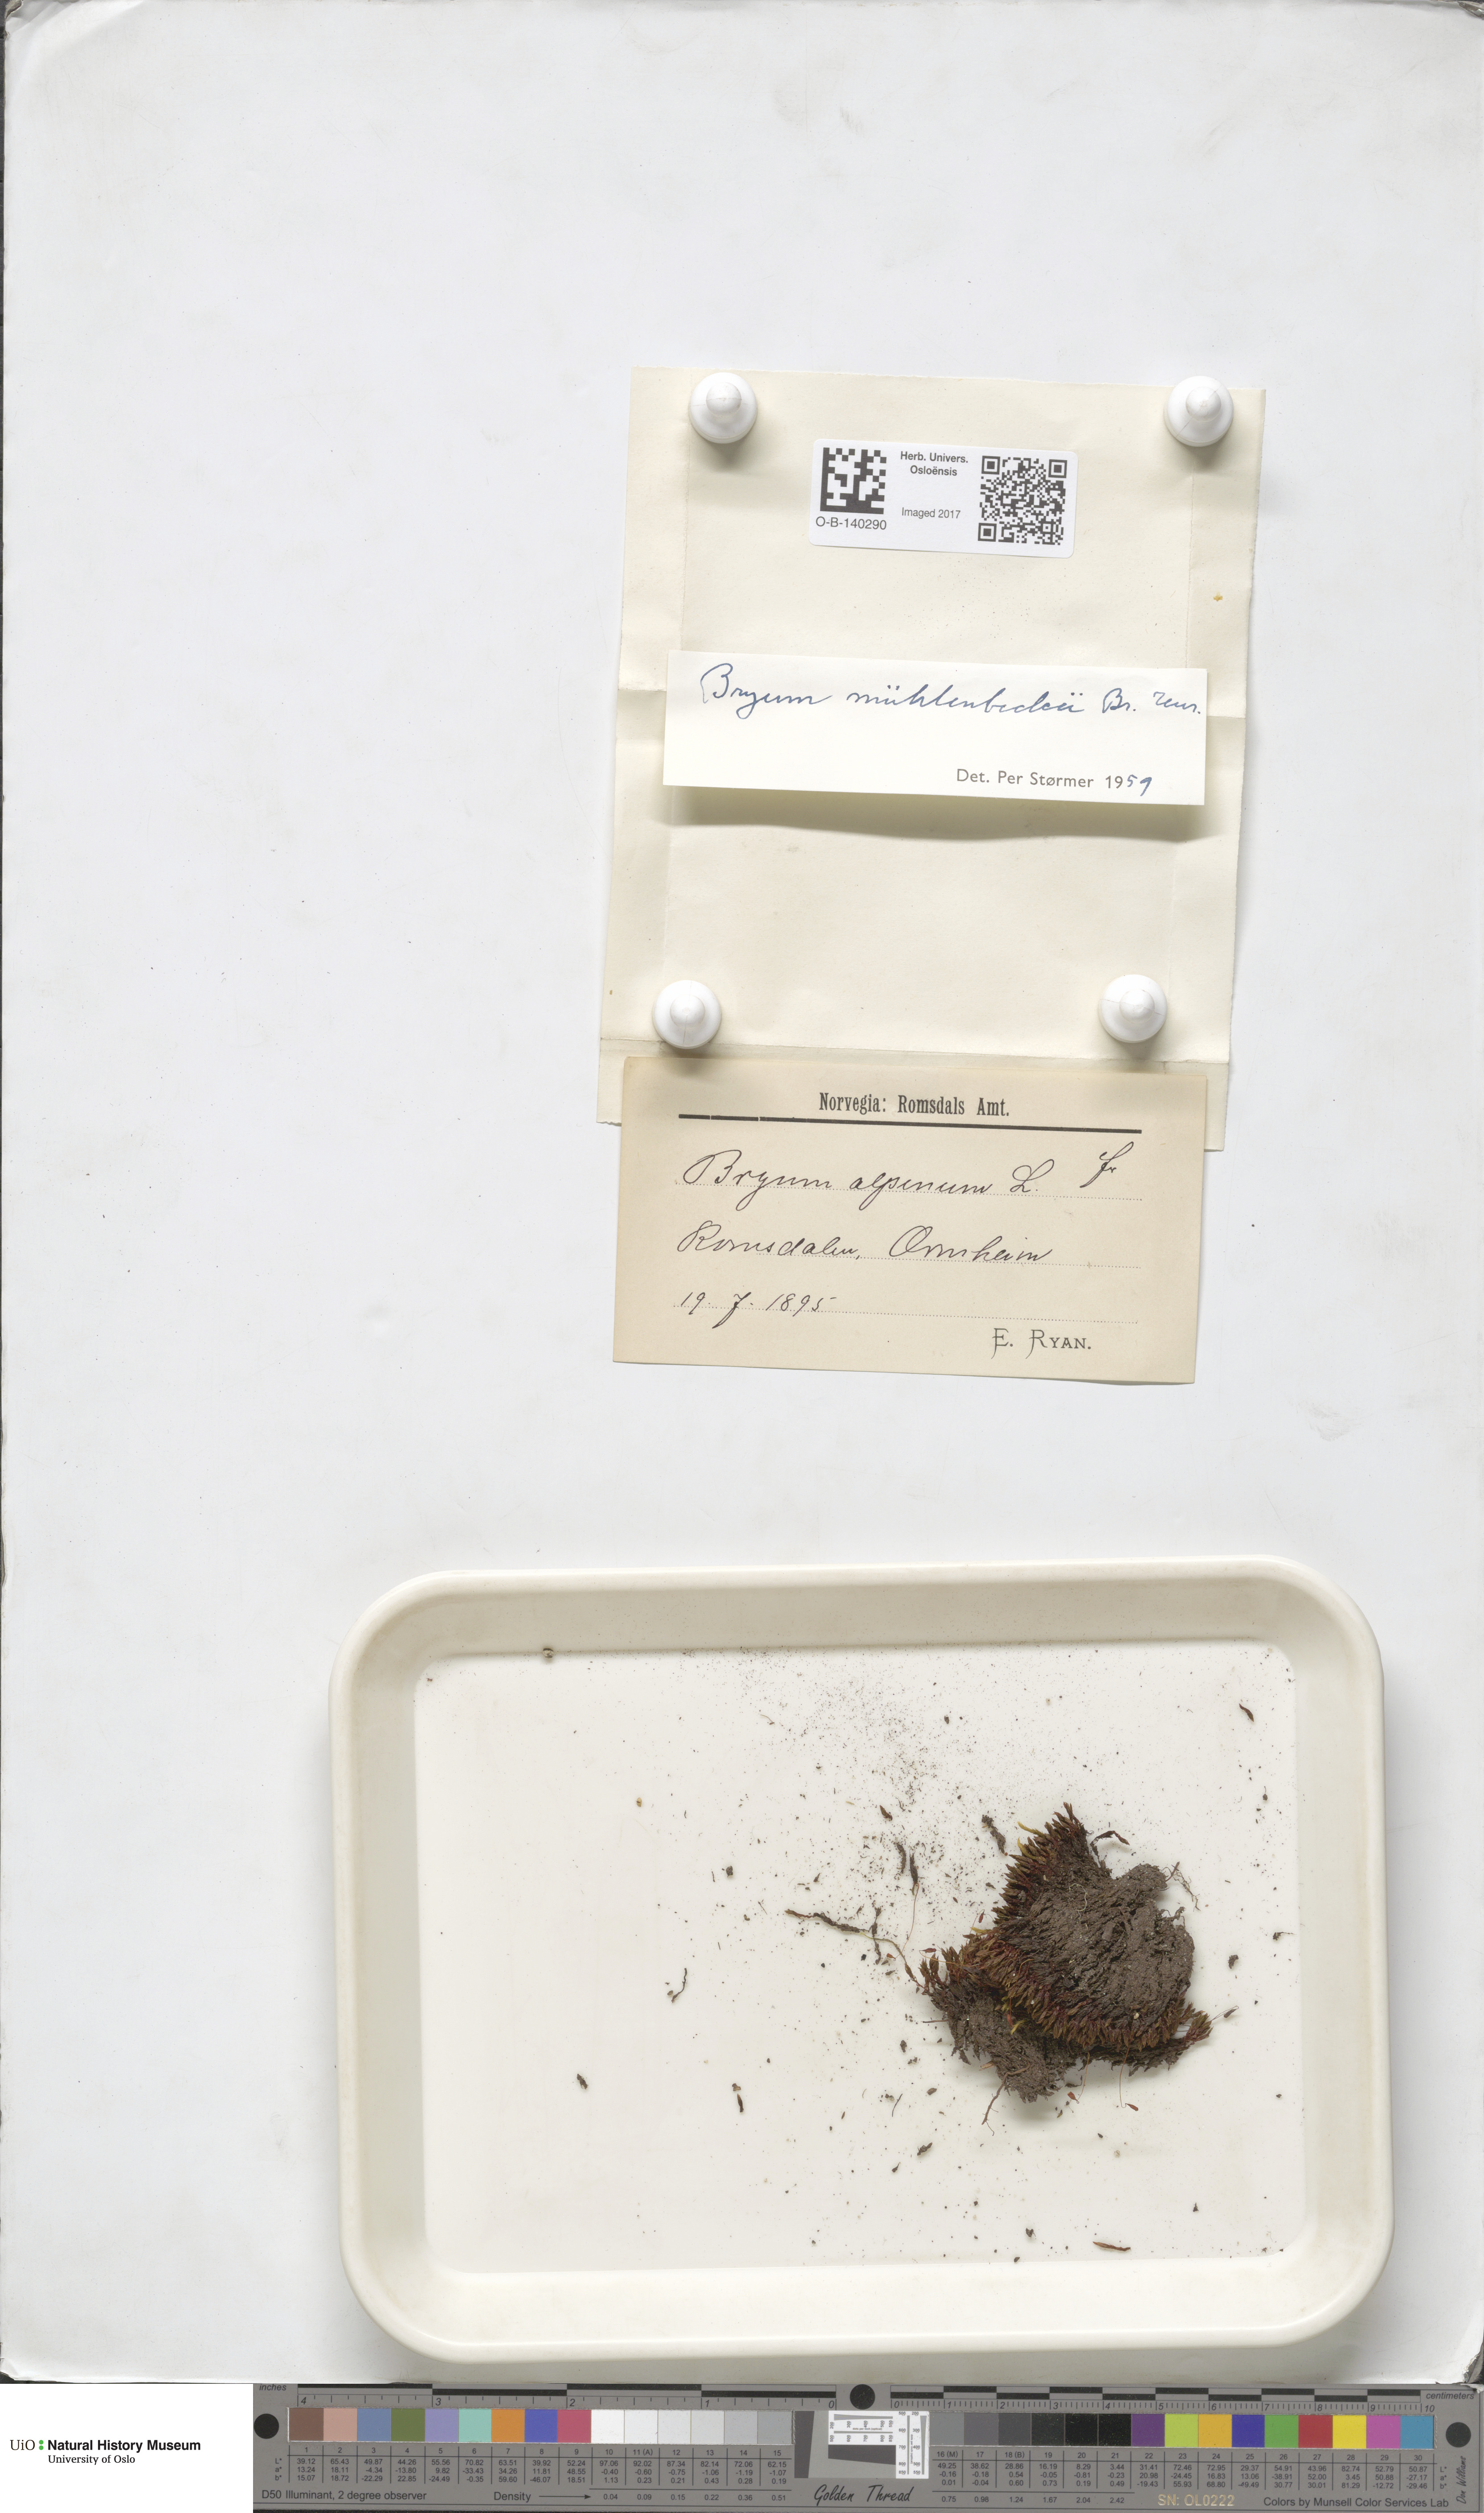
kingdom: Plantae
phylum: Bryophyta
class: Bryopsida
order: Bryales
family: Bryaceae
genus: Imbribryum
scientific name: Imbribryum muehlenbeckii
